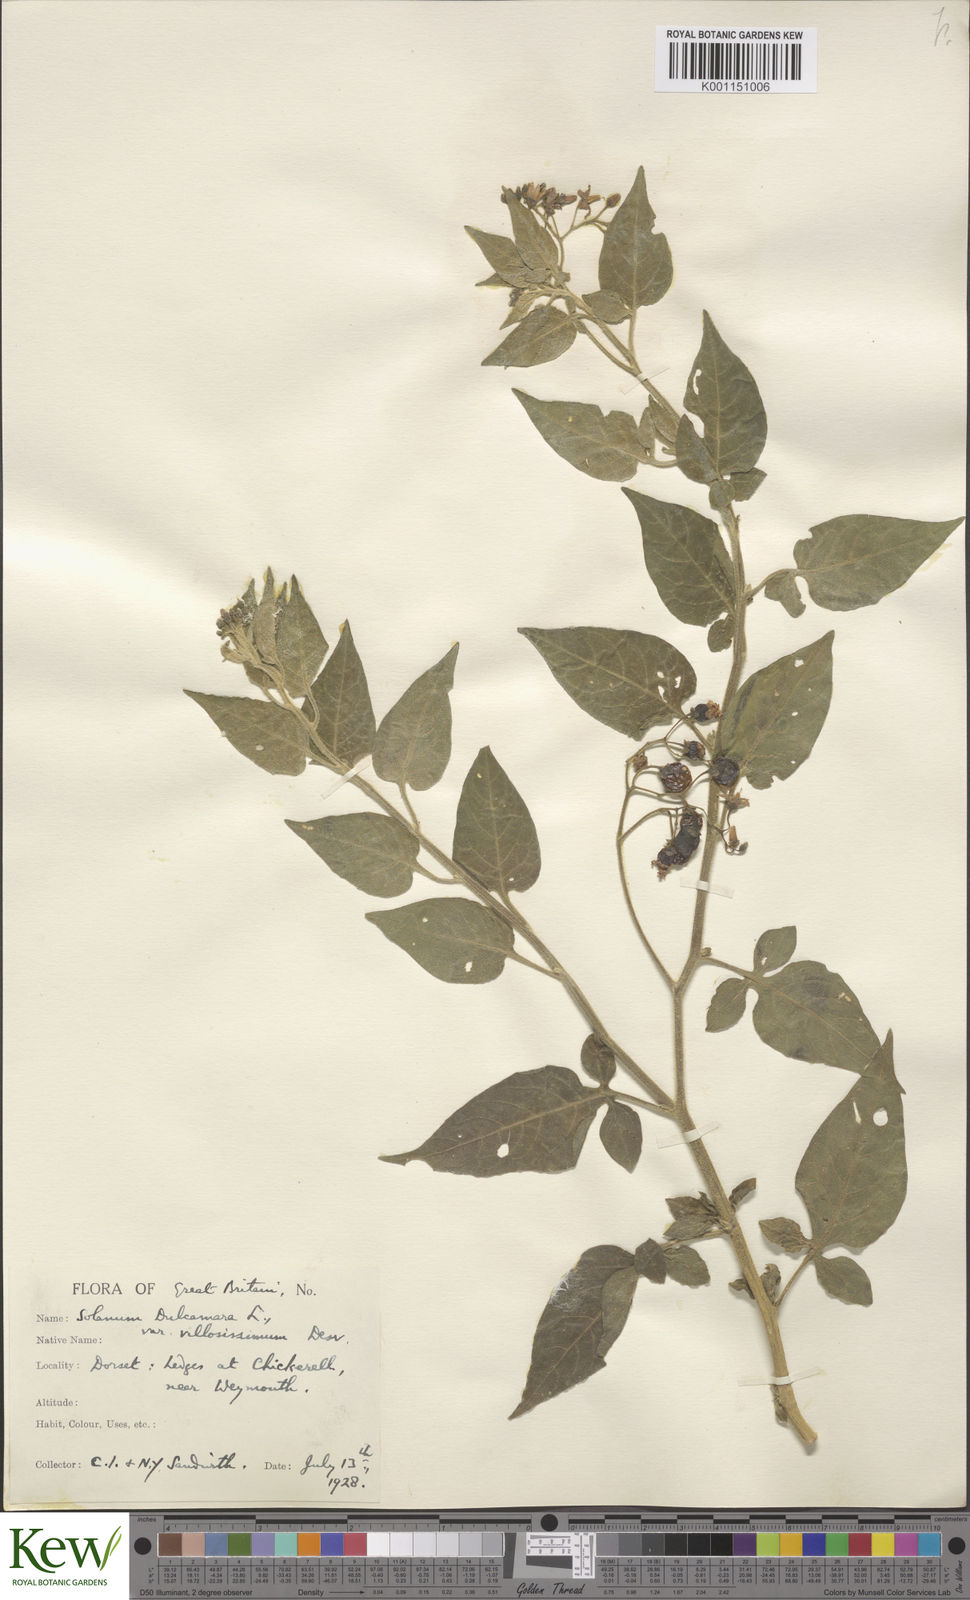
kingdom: Plantae
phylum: Tracheophyta
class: Magnoliopsida
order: Solanales
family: Solanaceae
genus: Solanum
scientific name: Solanum dulcamara
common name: Climbing nightshade
